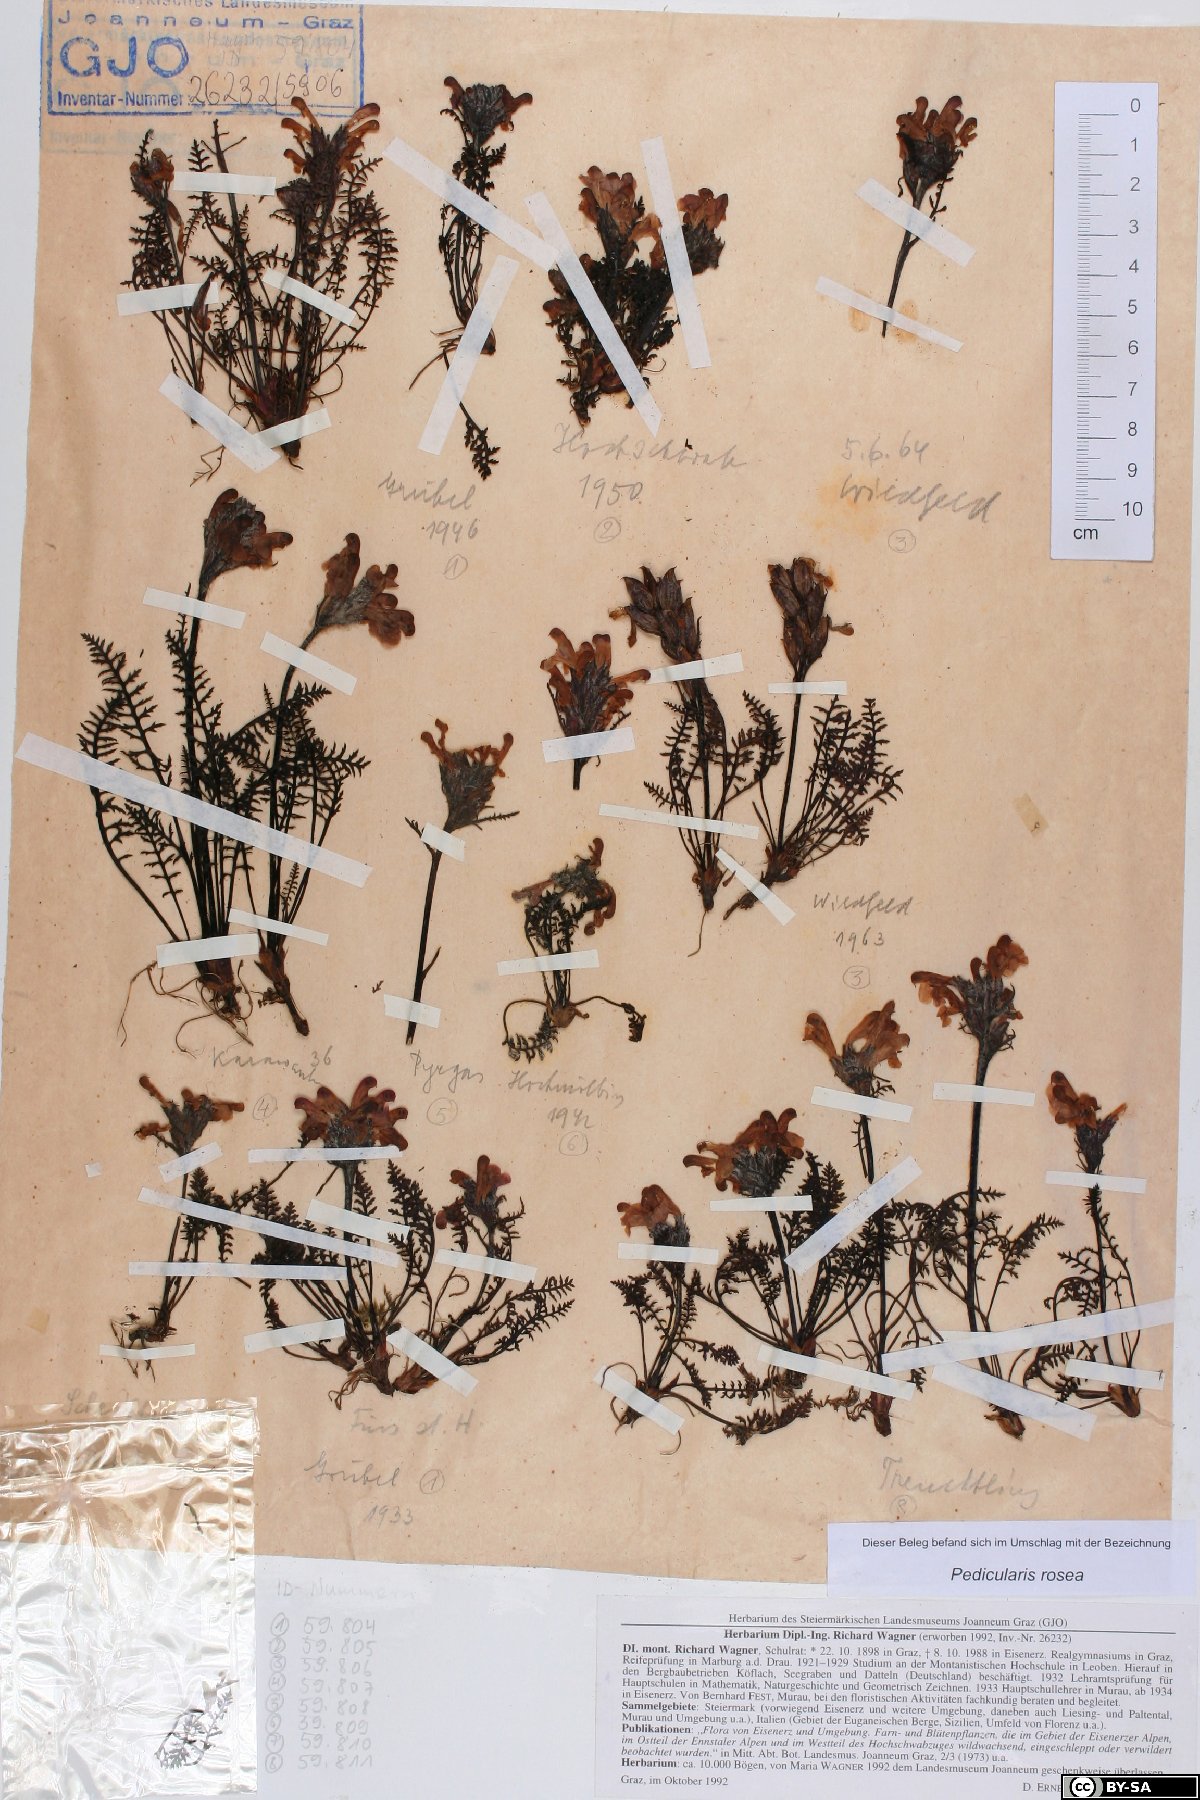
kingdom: Plantae
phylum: Tracheophyta
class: Magnoliopsida
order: Lamiales
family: Orobanchaceae
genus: Pedicularis
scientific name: Pedicularis rosea
